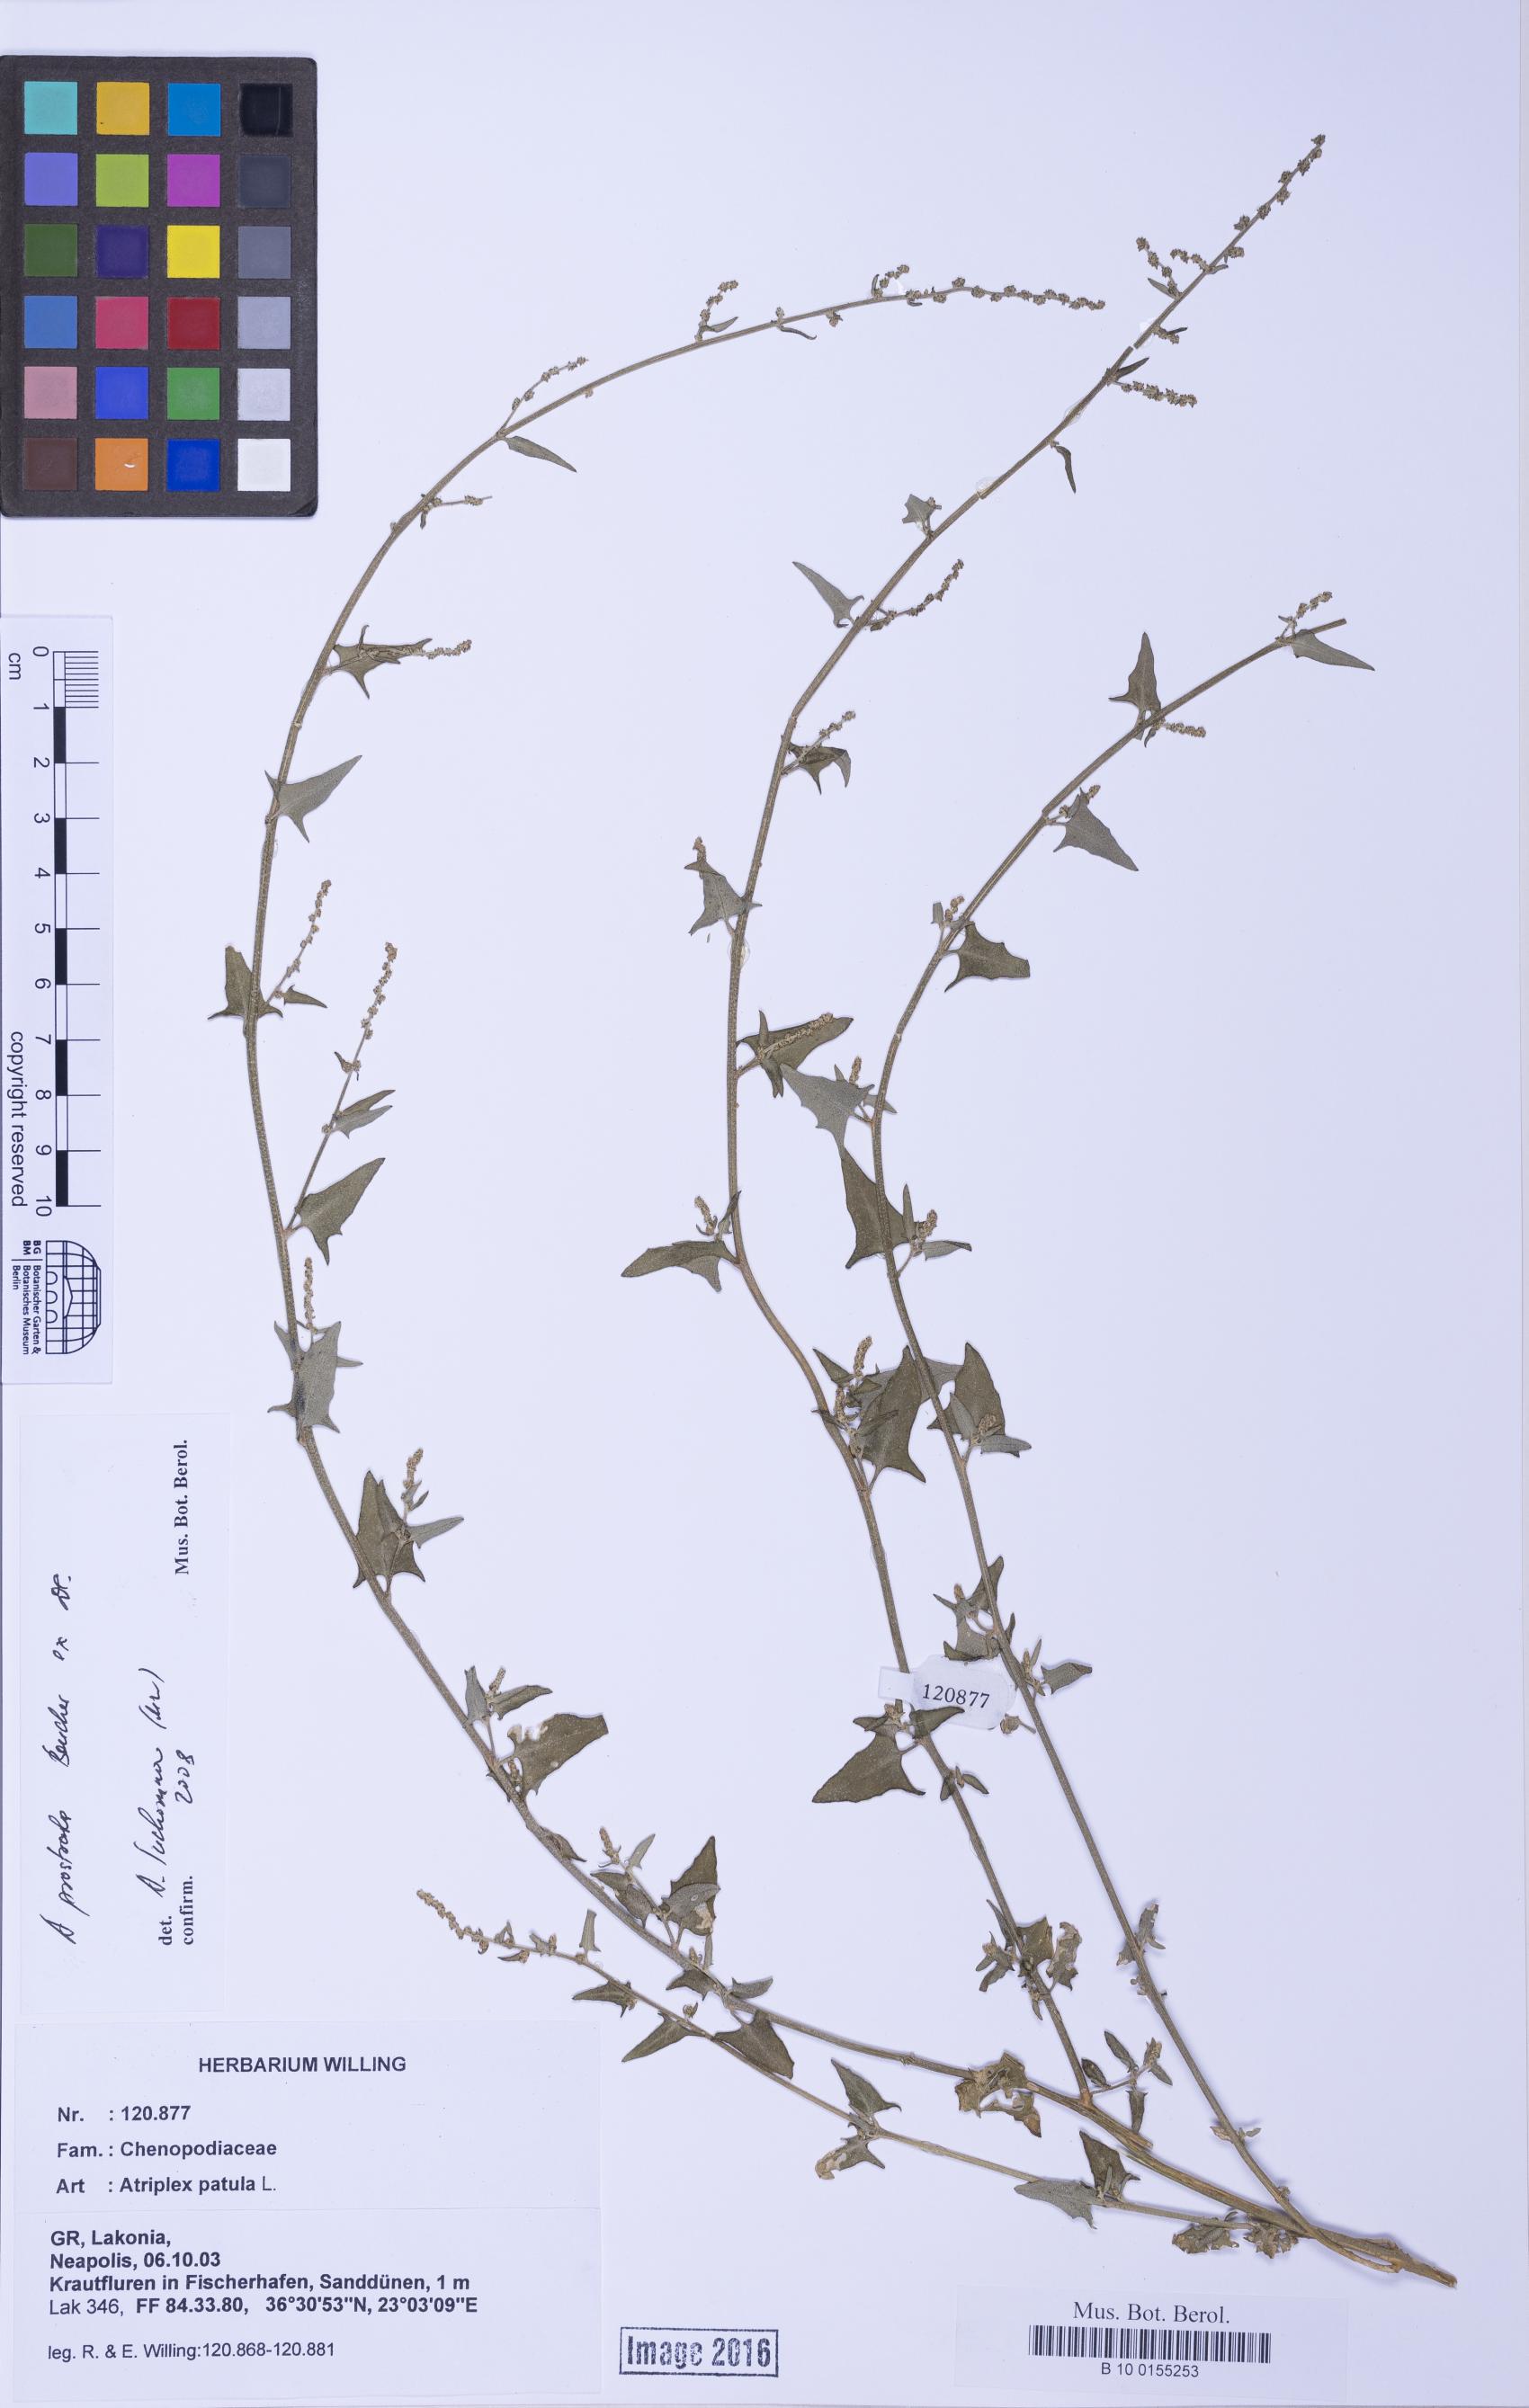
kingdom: Plantae
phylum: Tracheophyta
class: Magnoliopsida
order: Caryophyllales
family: Amaranthaceae
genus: Atriplex
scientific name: Atriplex prostrata
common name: Spear-leaved orache
